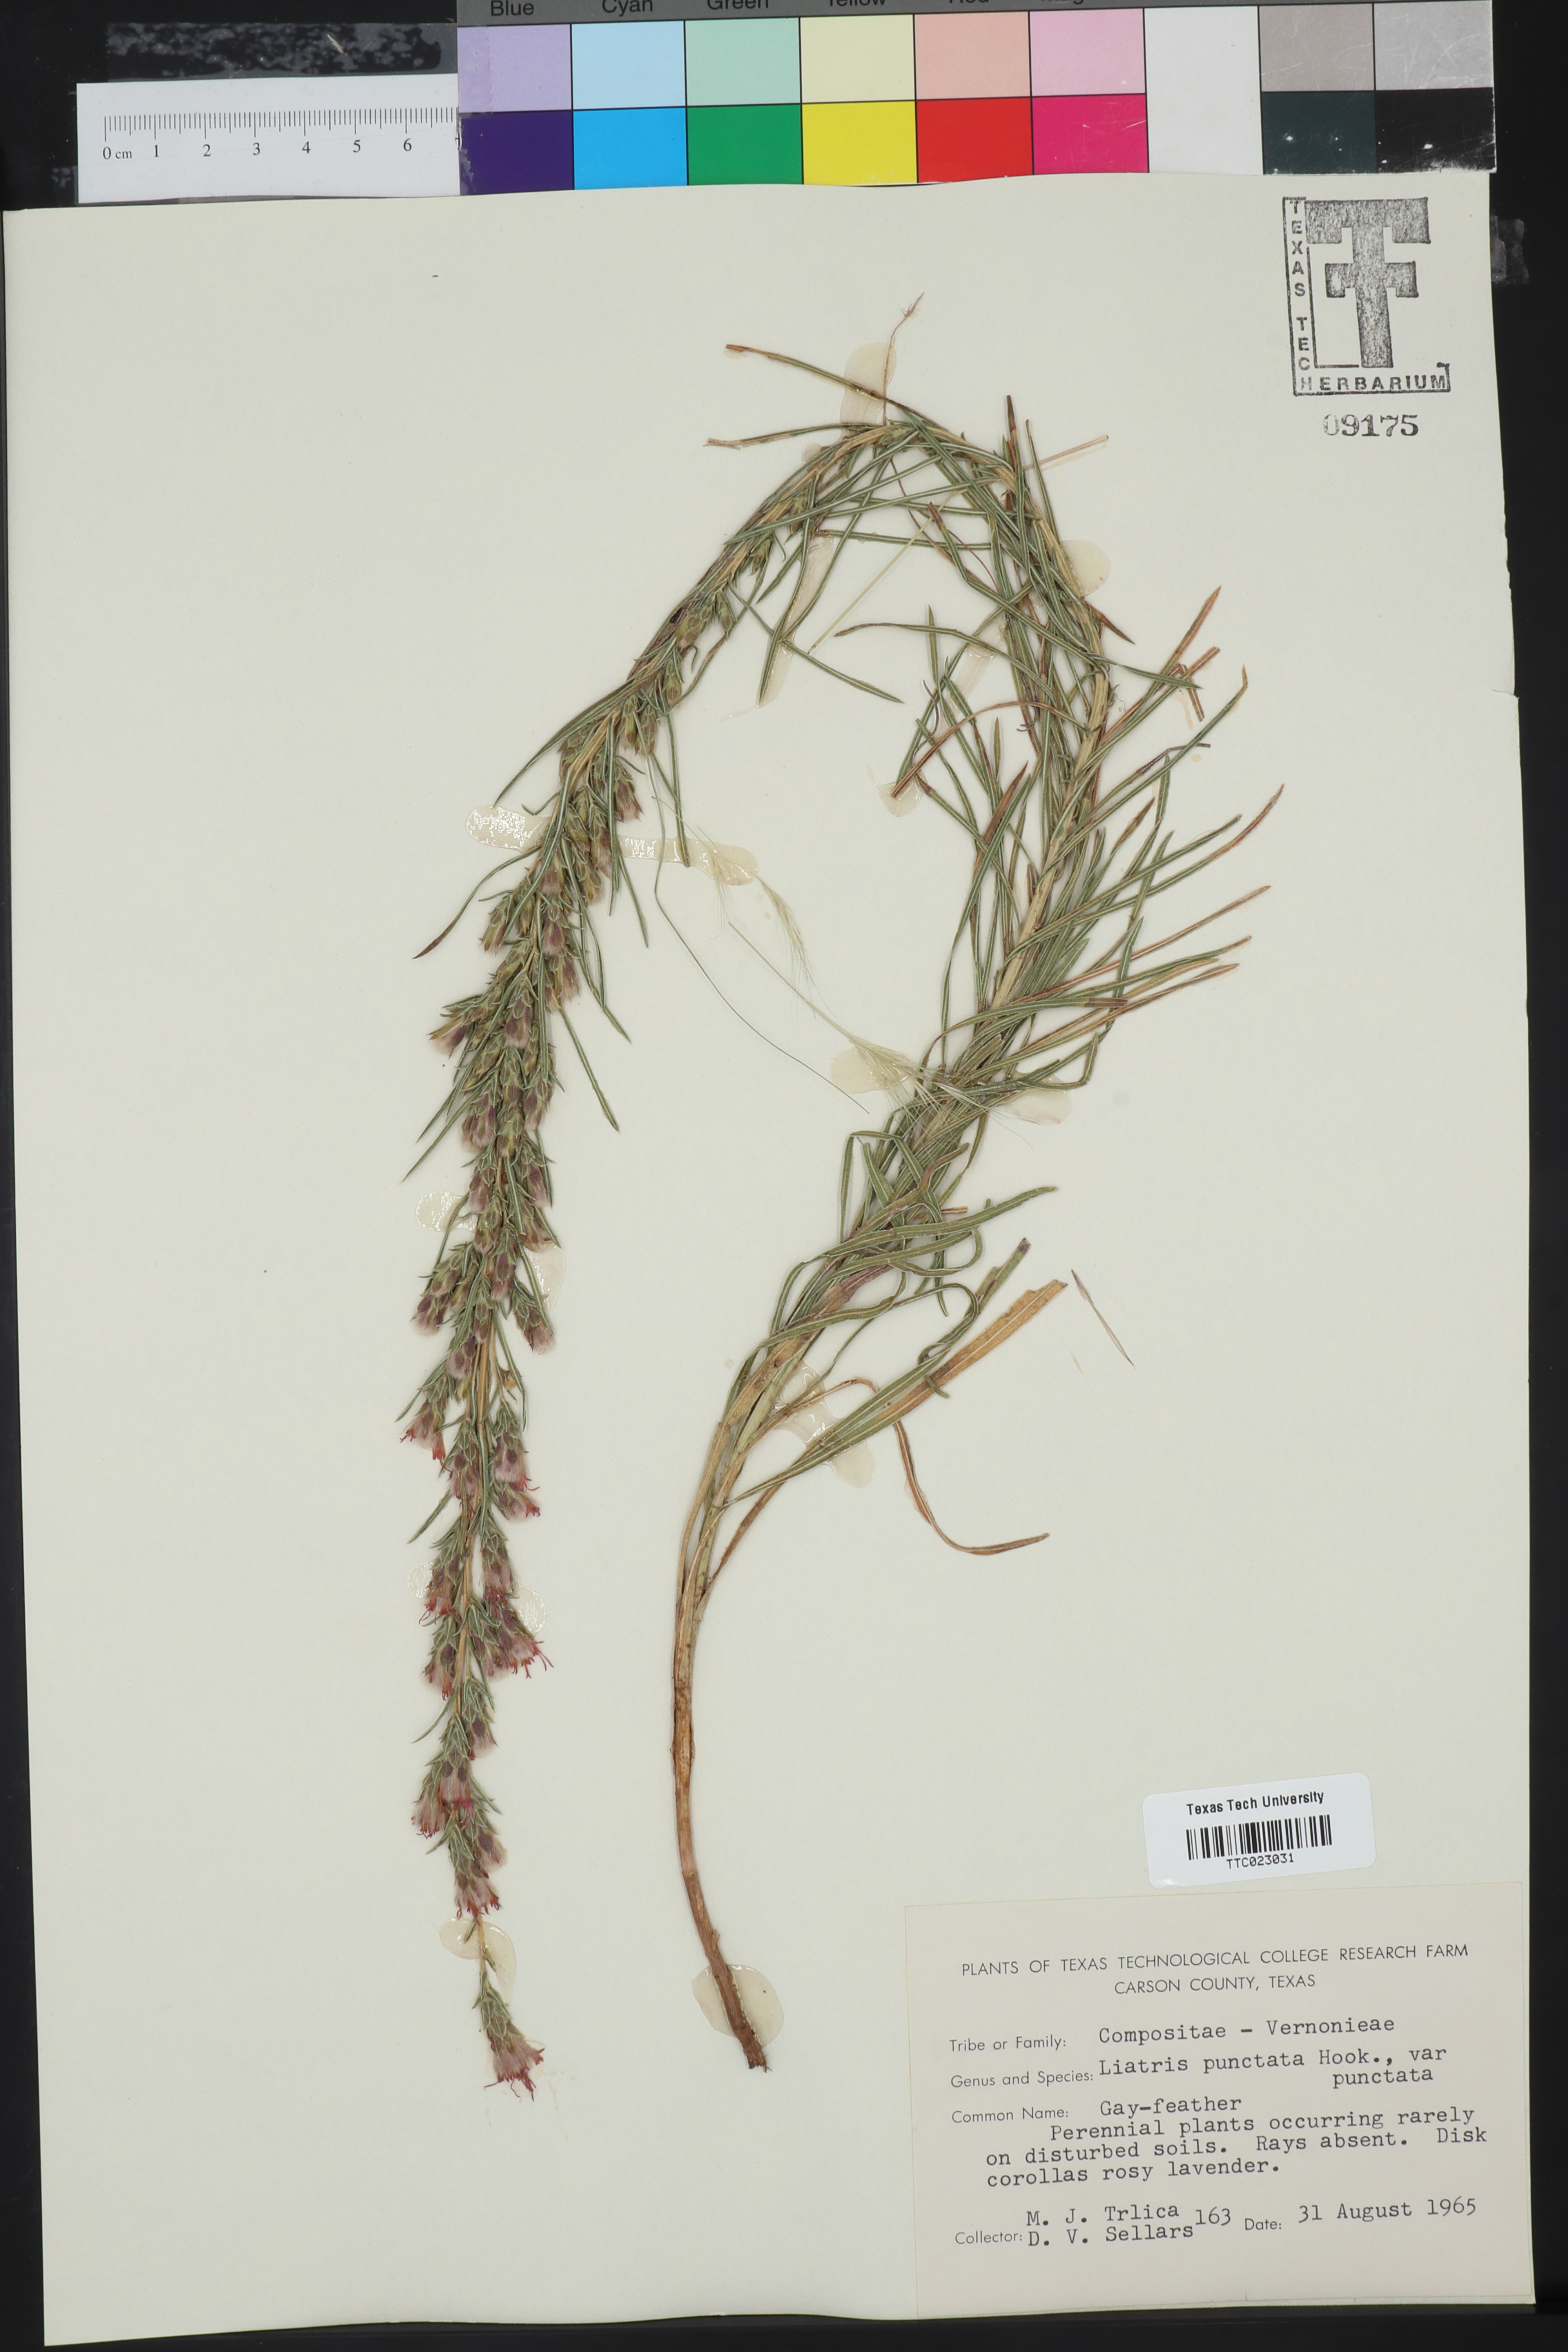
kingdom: Plantae
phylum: Tracheophyta
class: Magnoliopsida
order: Asterales
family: Asteraceae
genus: Liatris
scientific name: Liatris punctata
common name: Dotted gayfeather
